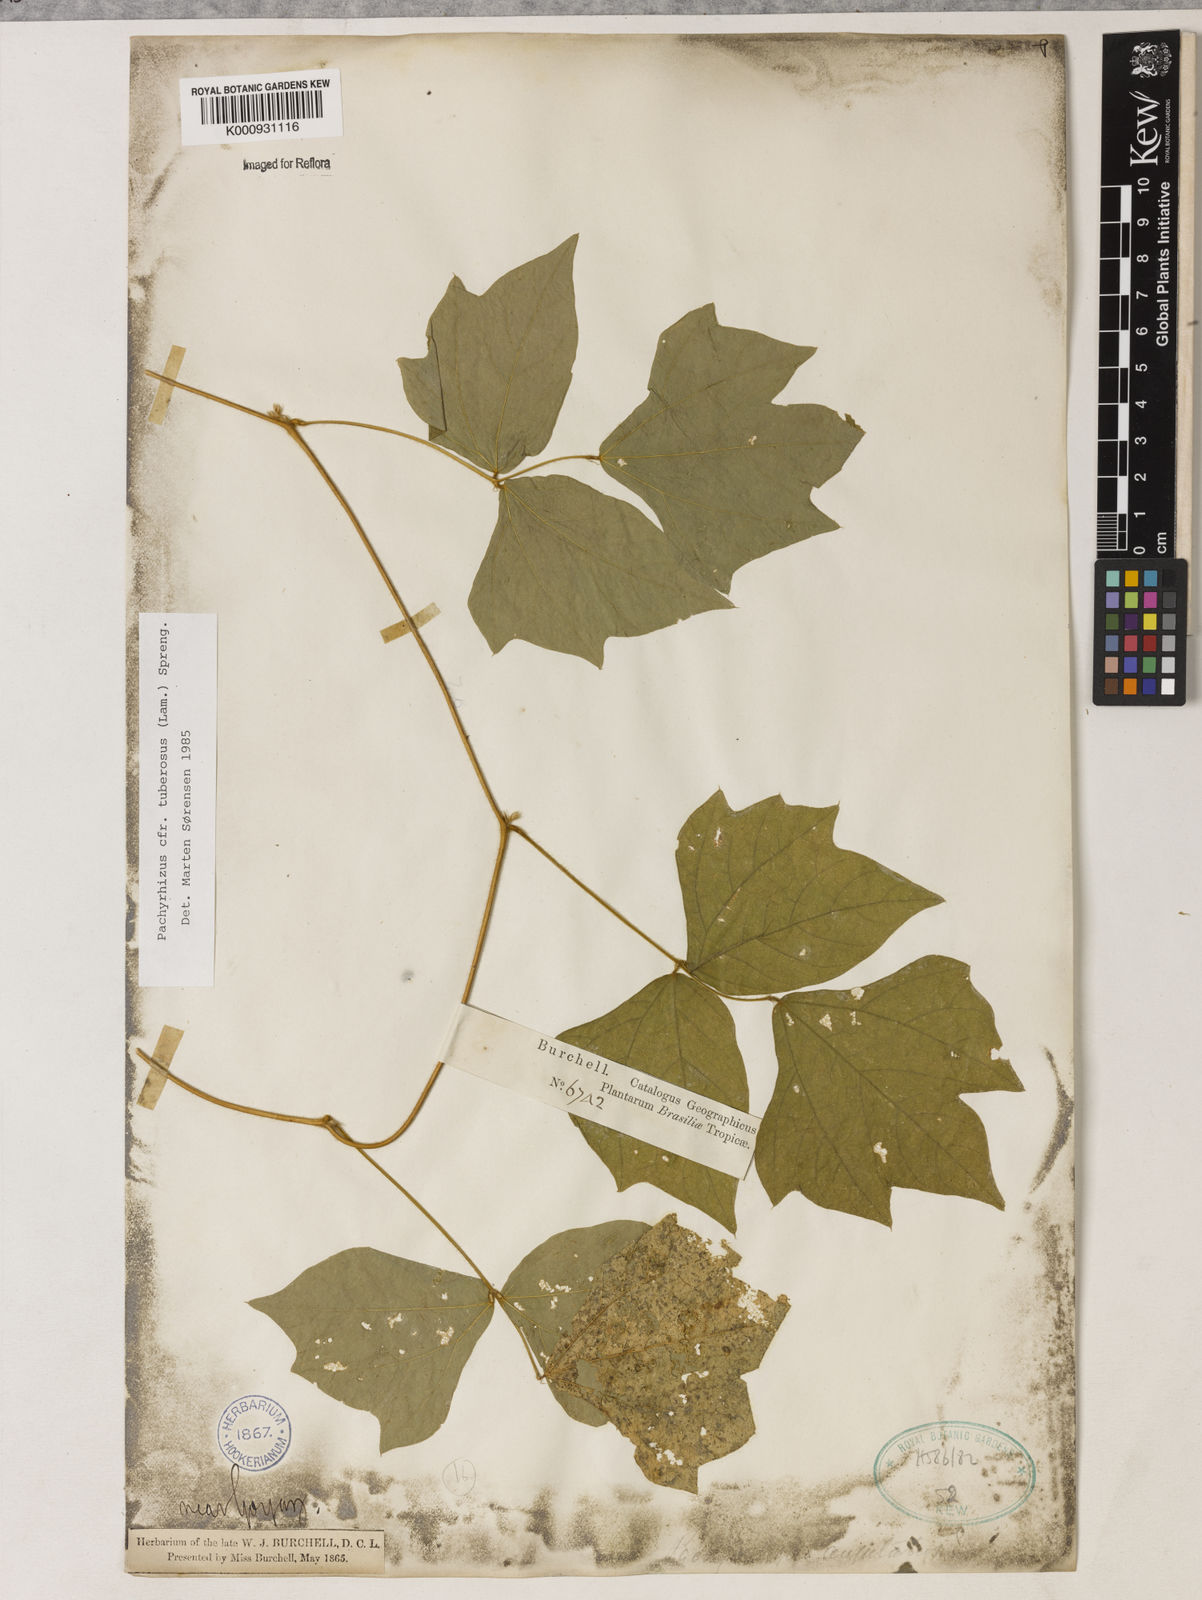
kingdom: Plantae
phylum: Tracheophyta
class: Magnoliopsida
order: Fabales
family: Fabaceae
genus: Pachyrhizus
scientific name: Pachyrhizus tuberosus
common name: Yam-bean
